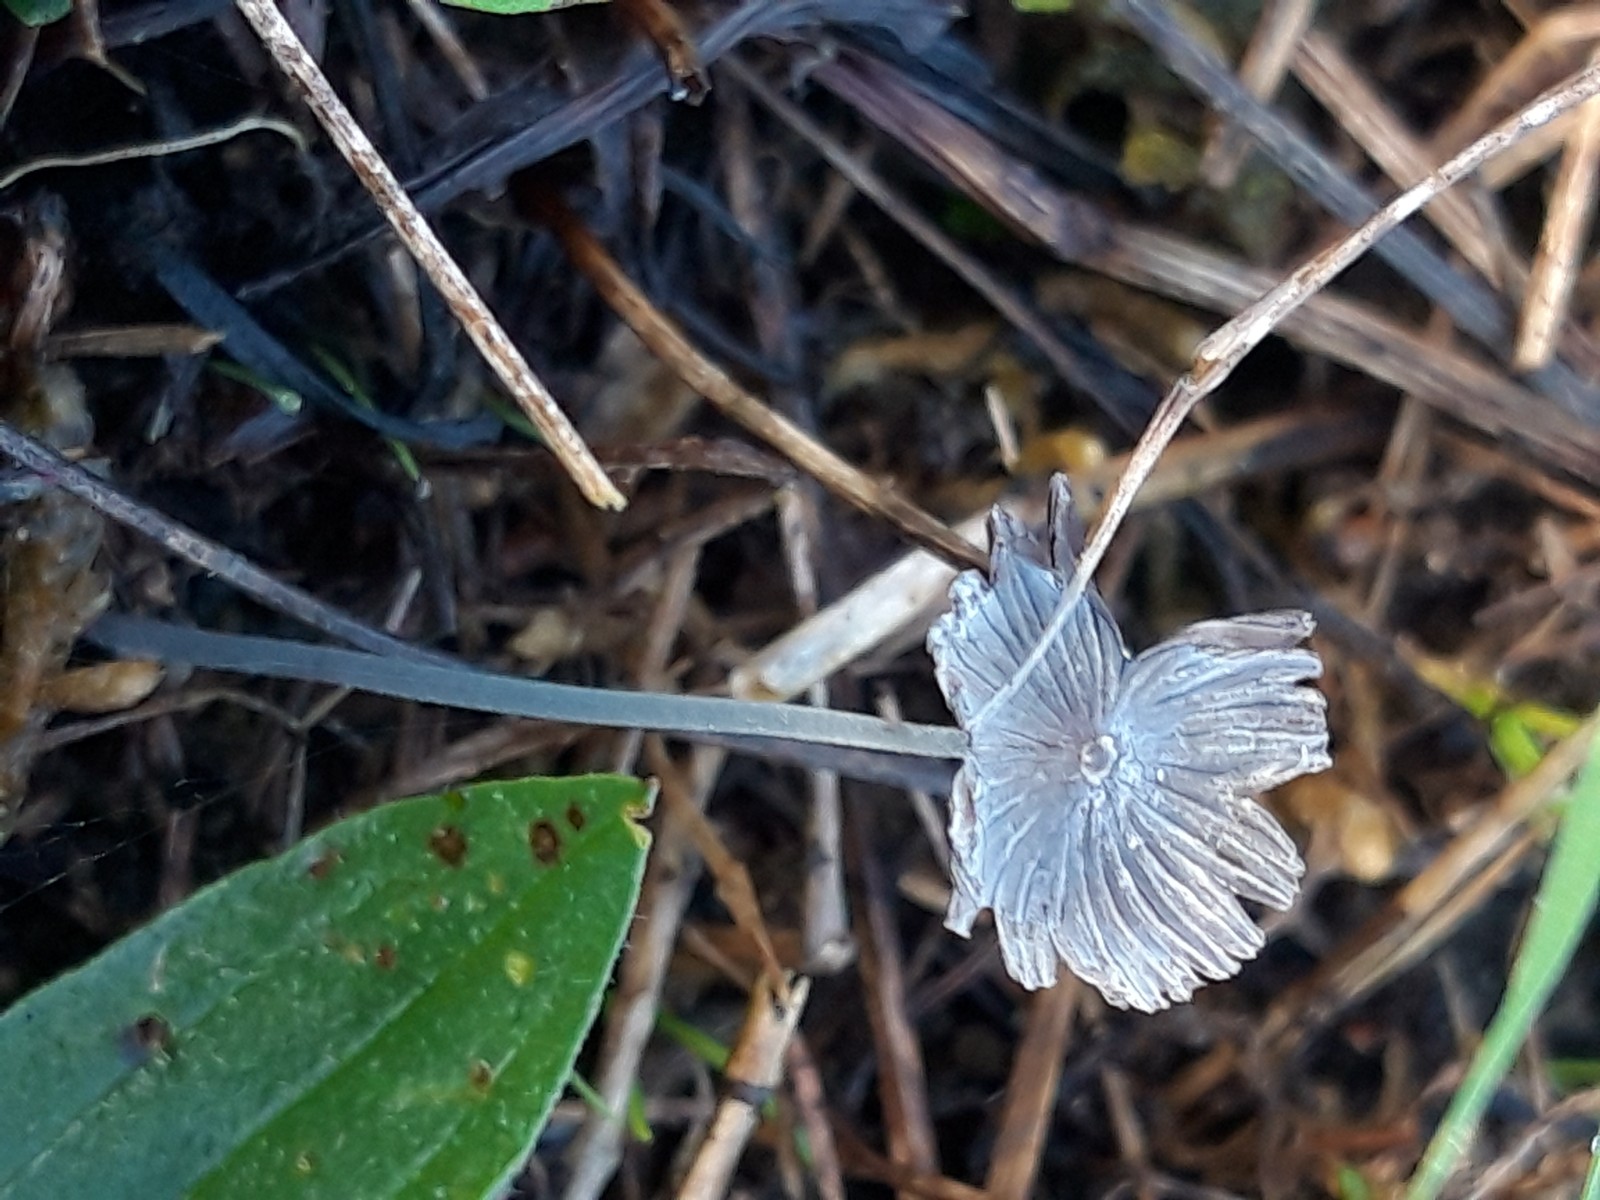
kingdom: Fungi
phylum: Basidiomycota
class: Agaricomycetes
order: Agaricales
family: Psathyrellaceae
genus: Coprinopsis
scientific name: Coprinopsis
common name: blækhat
